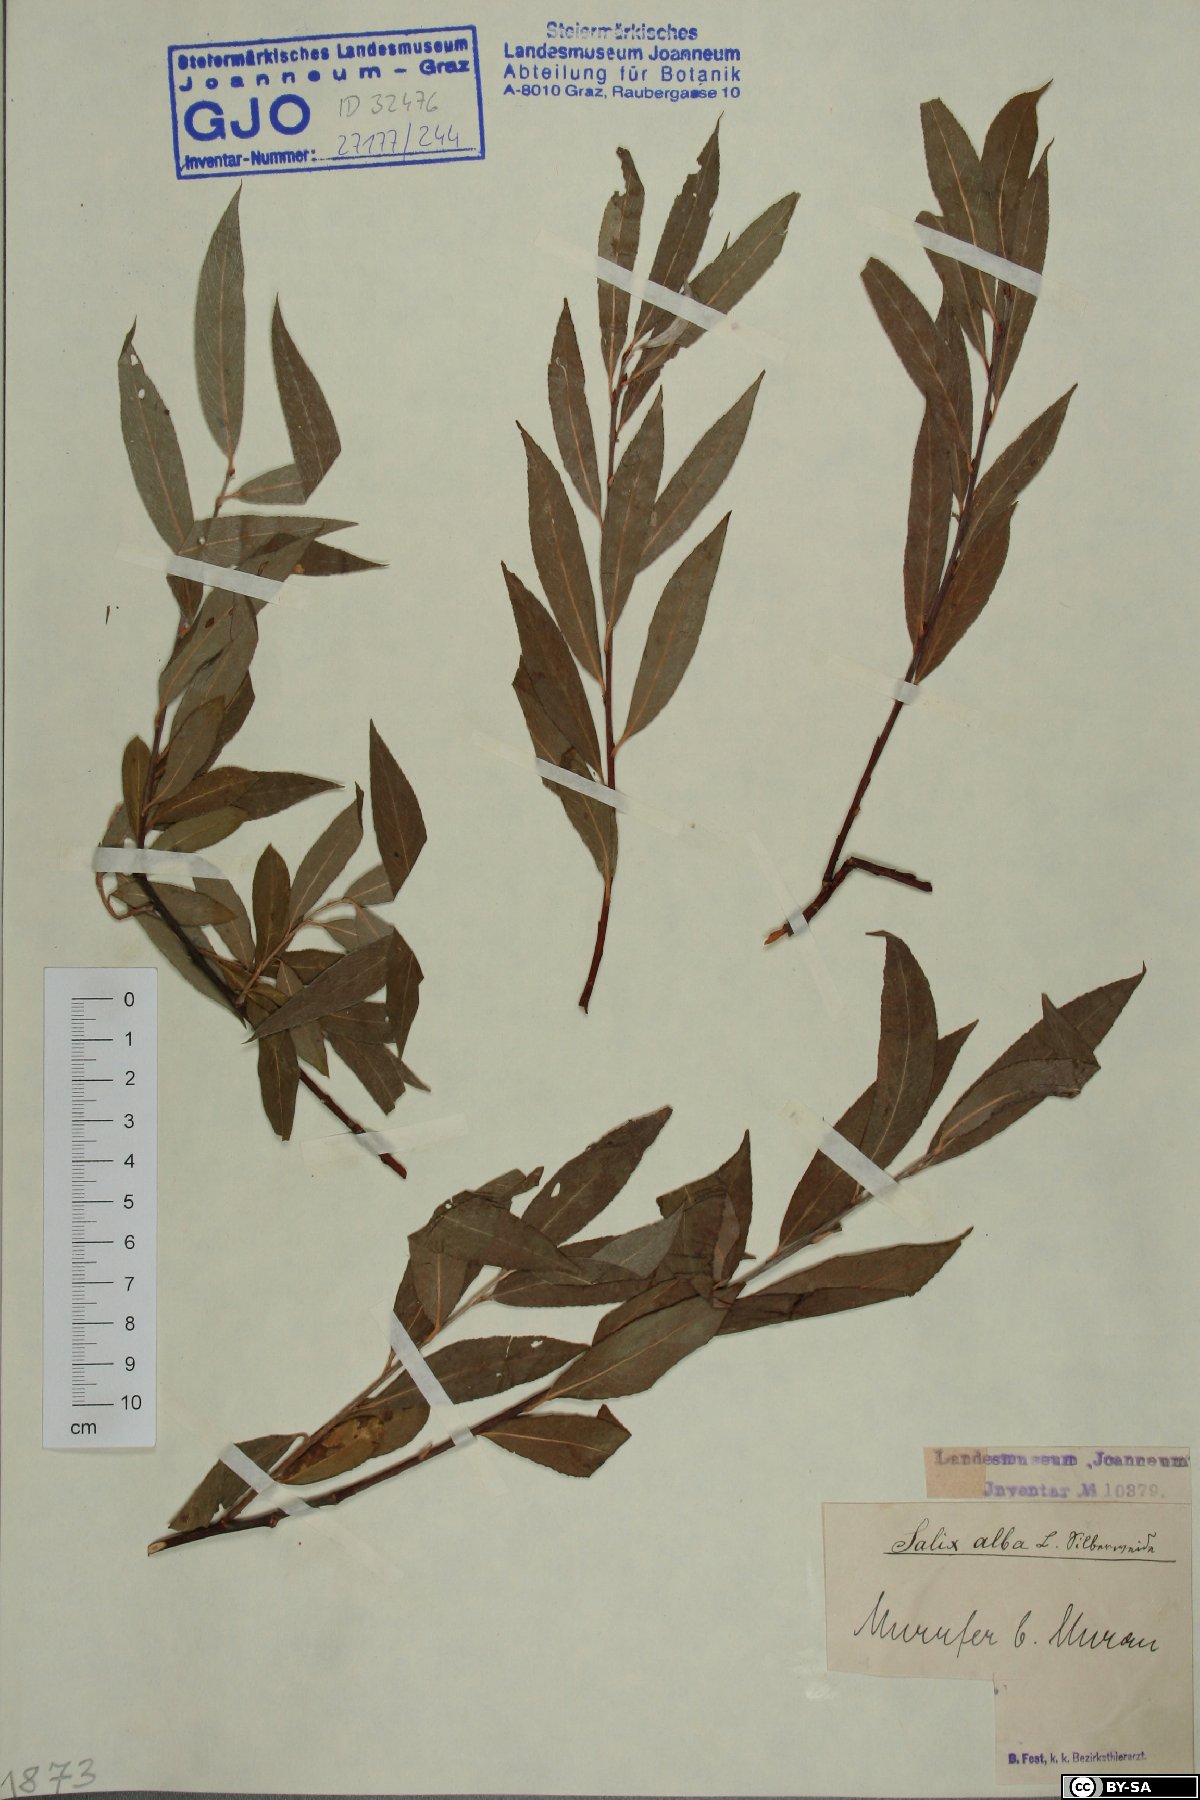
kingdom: Plantae
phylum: Tracheophyta
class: Magnoliopsida
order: Malpighiales
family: Salicaceae
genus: Salix
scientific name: Salix alba
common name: White willow
